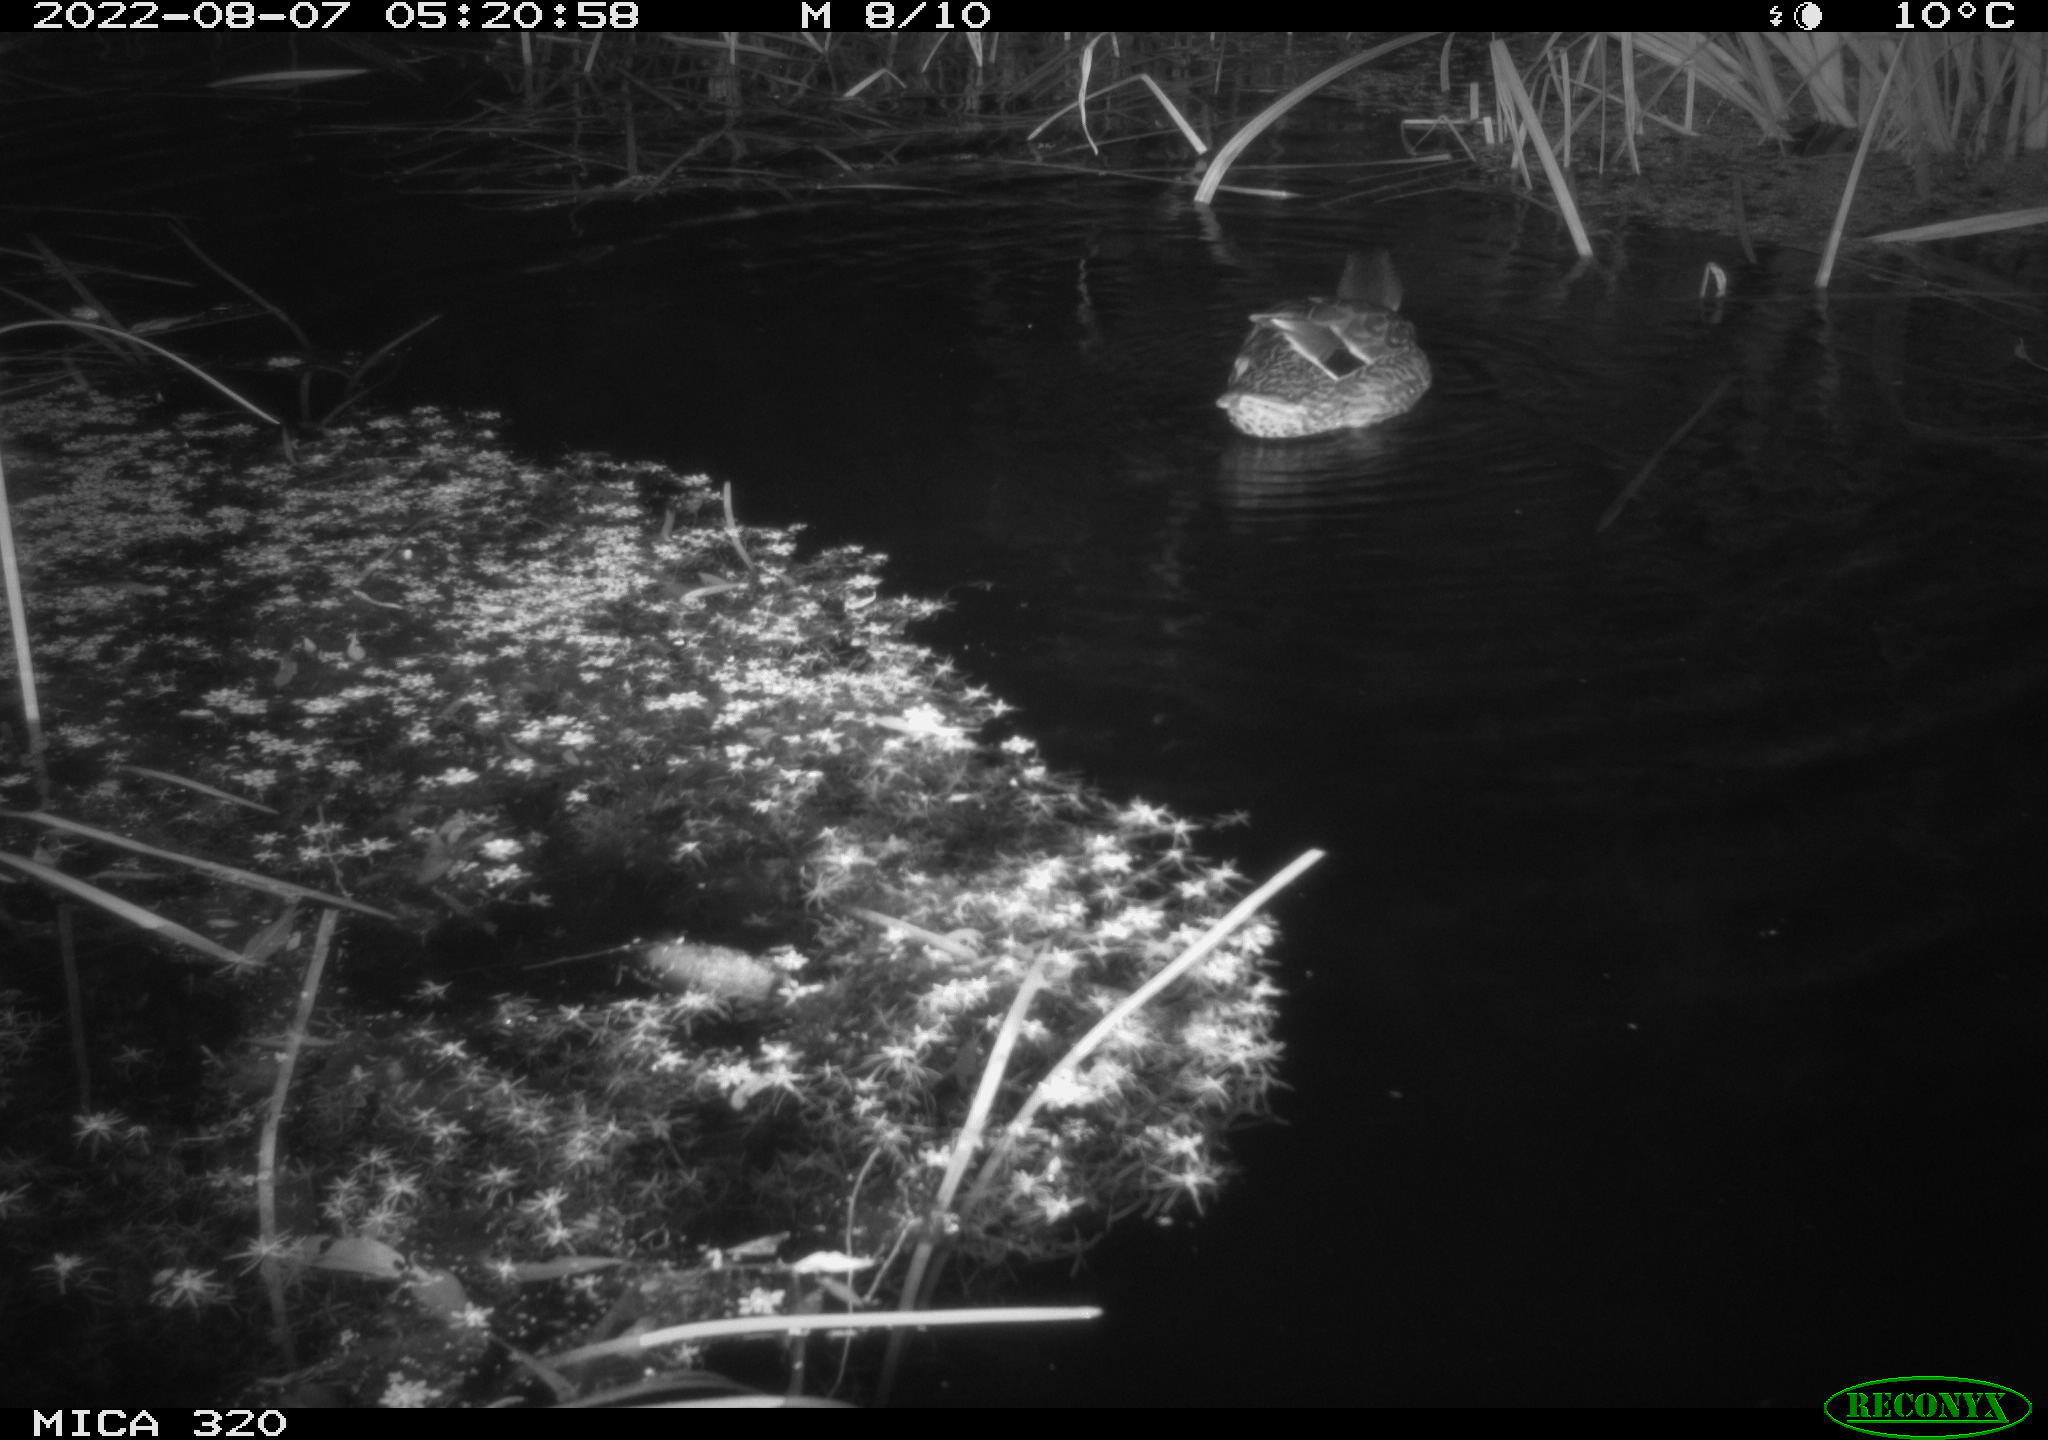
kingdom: Animalia
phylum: Chordata
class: Aves
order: Anseriformes
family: Anatidae
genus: Anas
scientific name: Anas platyrhynchos
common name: Mallard
